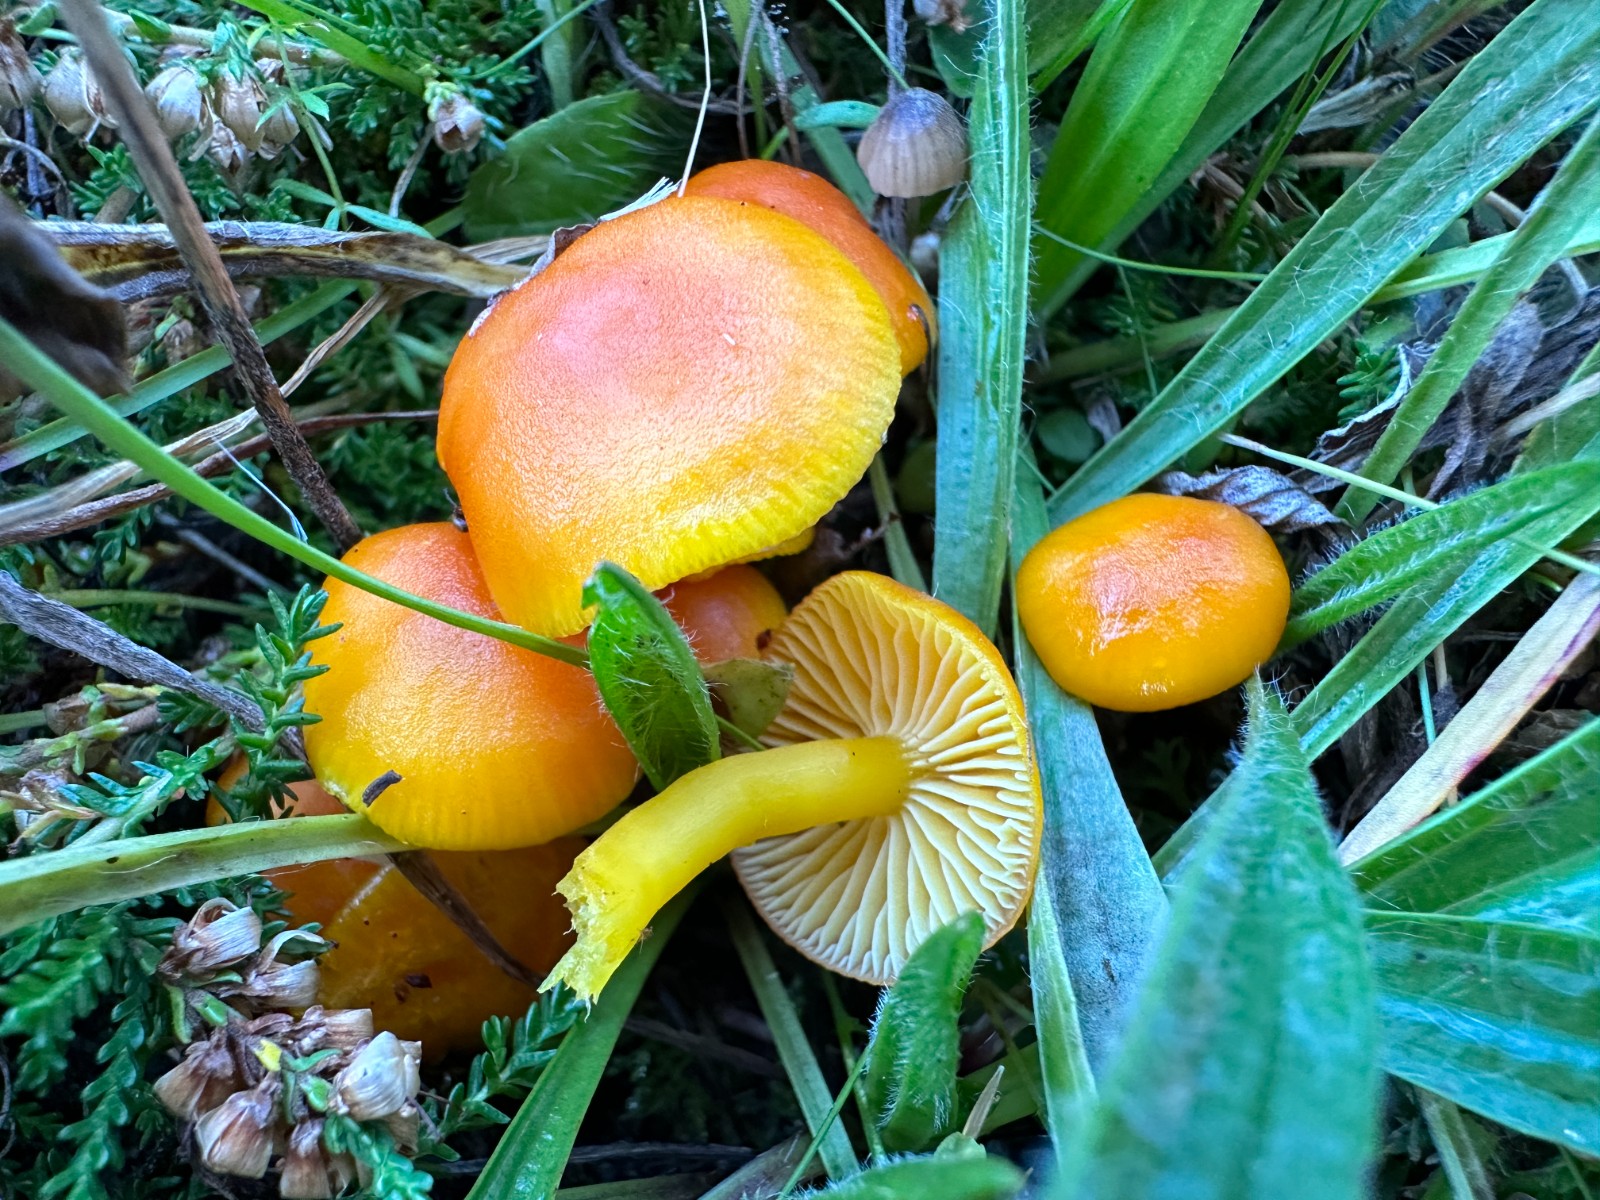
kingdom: Fungi
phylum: Basidiomycota
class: Agaricomycetes
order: Agaricales
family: Hygrophoraceae
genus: Hygrocybe
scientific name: Hygrocybe ceracea
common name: voksgul vokshat
